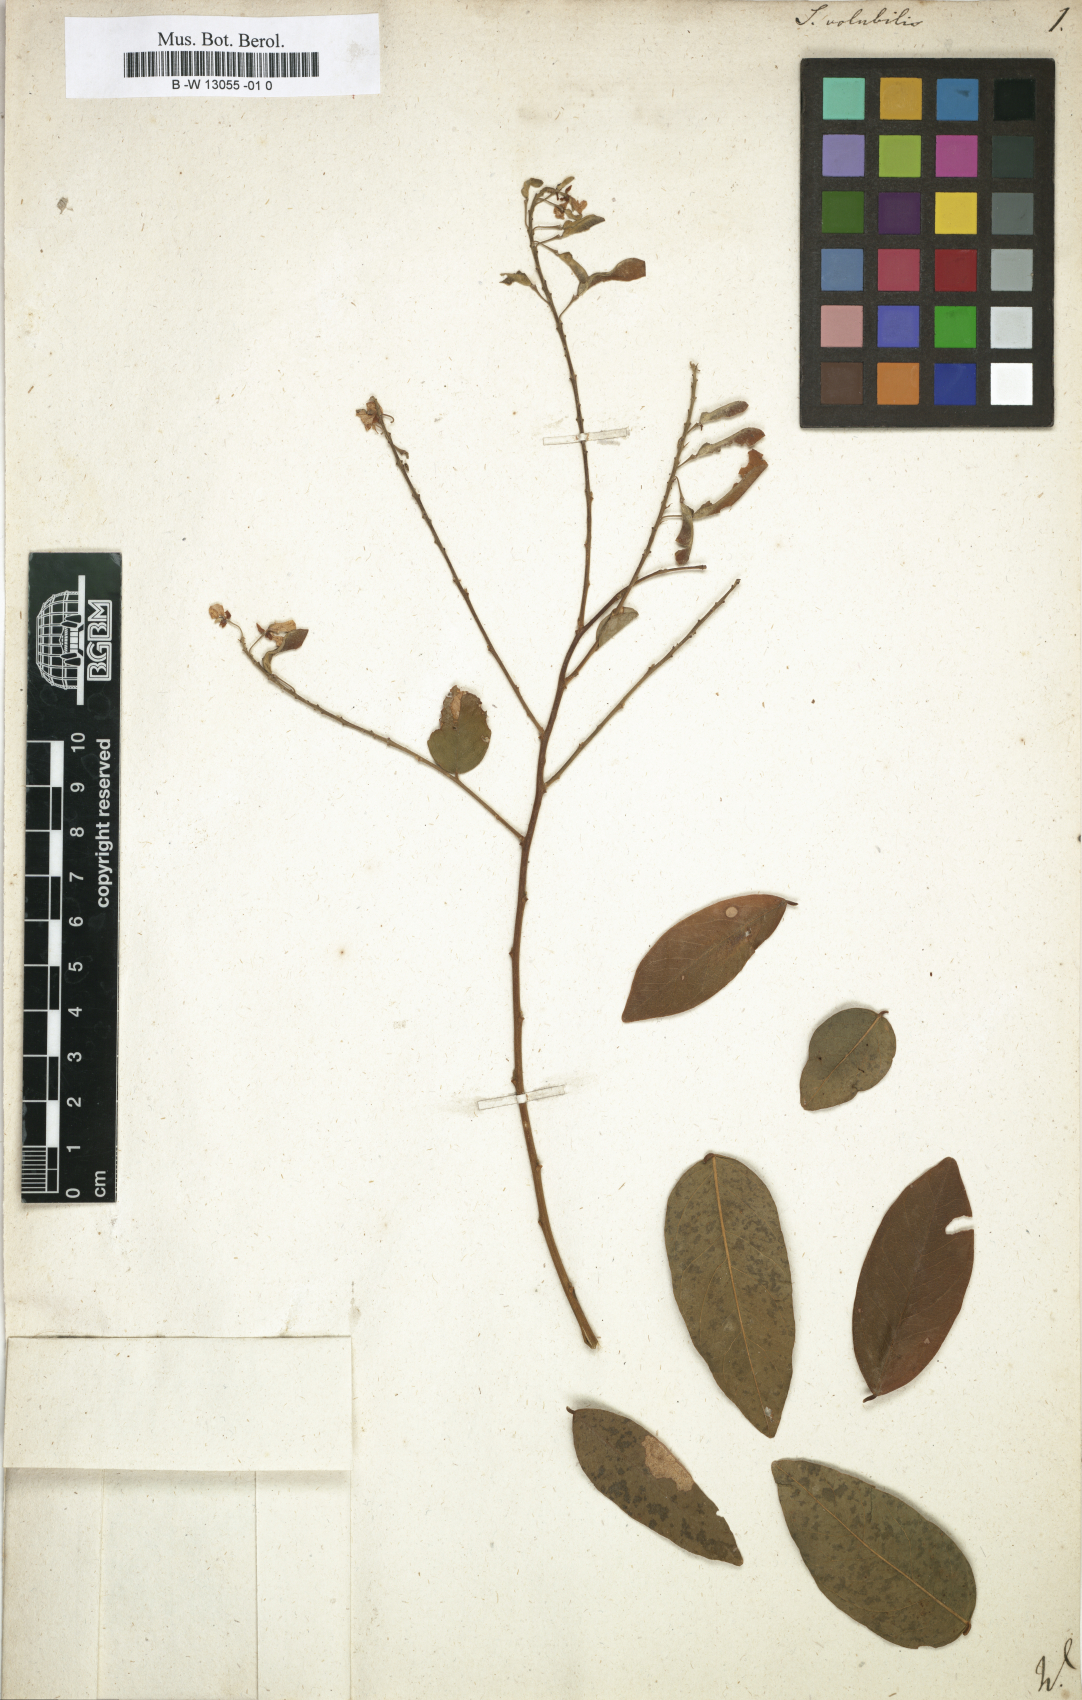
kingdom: Plantae
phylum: Tracheophyta
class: Magnoliopsida
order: Fabales
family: Polygalaceae
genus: Securidaca
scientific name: Securidaca
